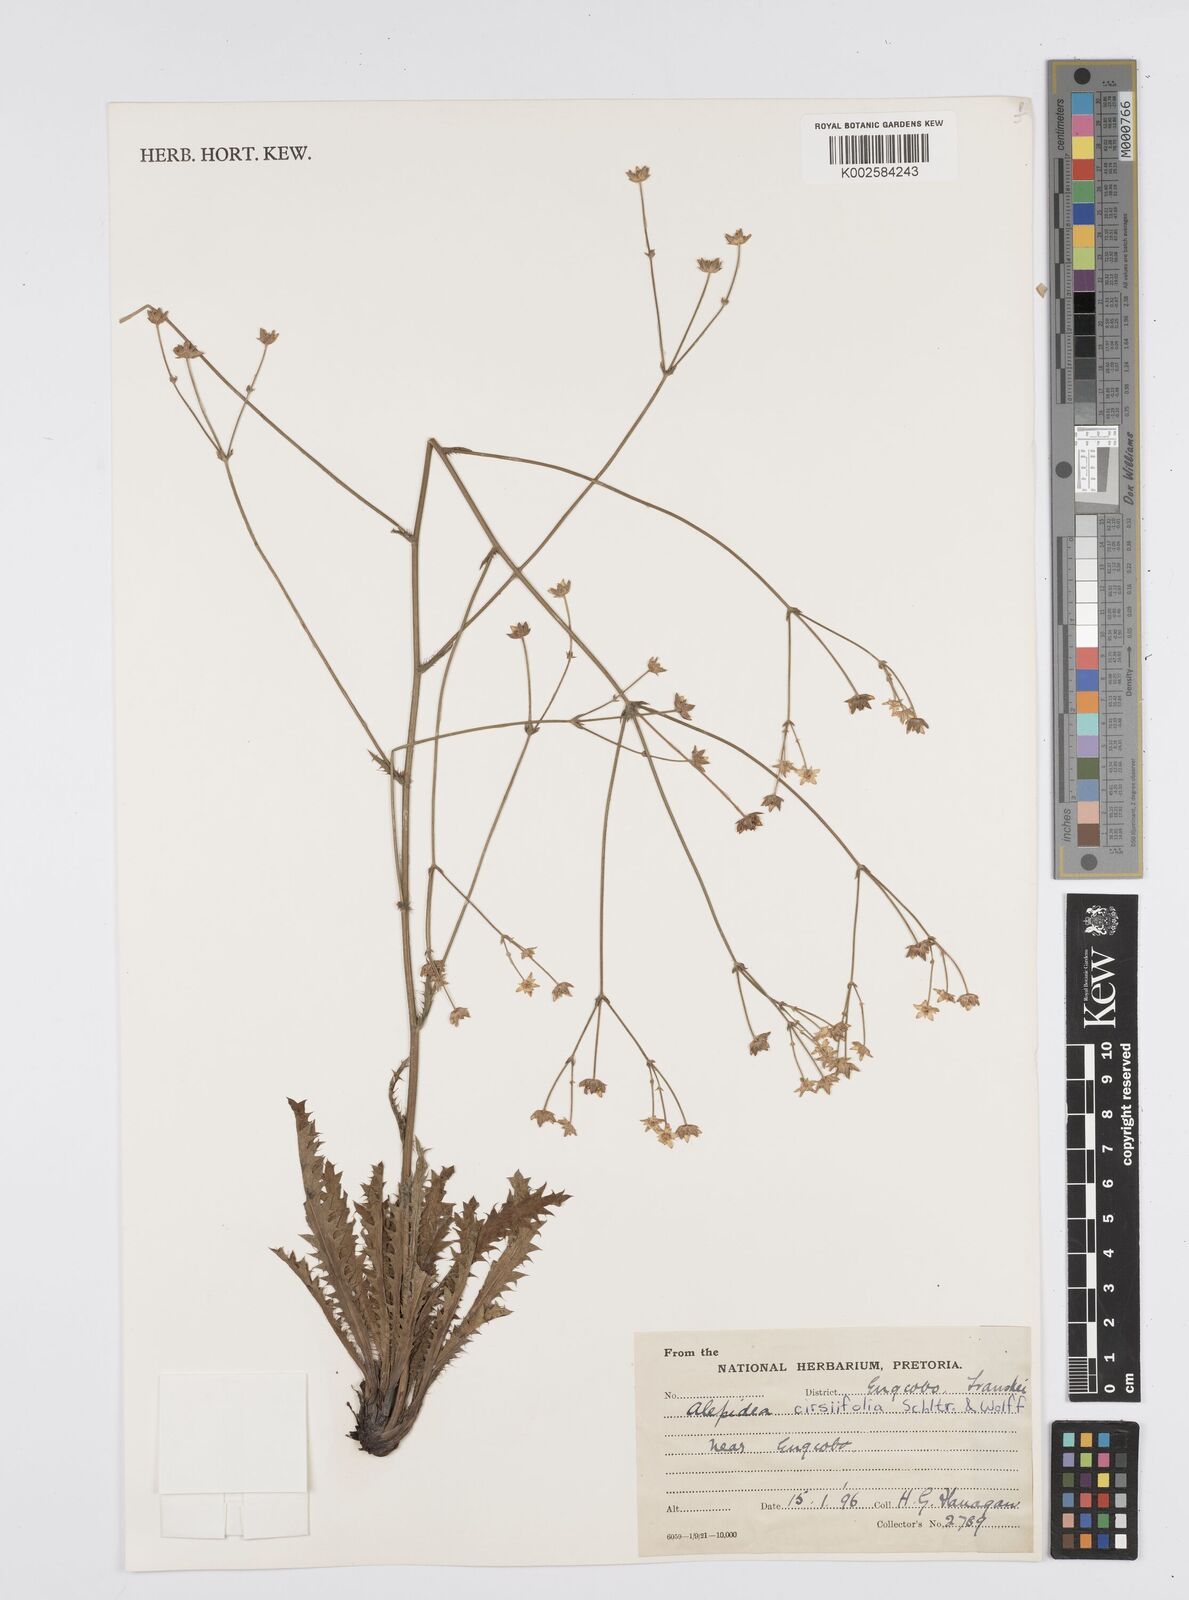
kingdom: Plantae
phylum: Tracheophyta
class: Magnoliopsida
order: Apiales
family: Apiaceae
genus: Alepidea
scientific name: Alepidea cirsiifolia
